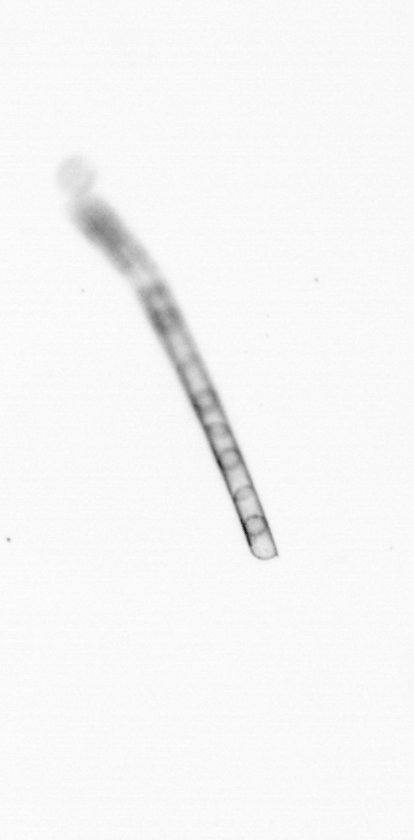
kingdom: Chromista
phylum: Ochrophyta
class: Bacillariophyceae
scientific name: Bacillariophyceae
